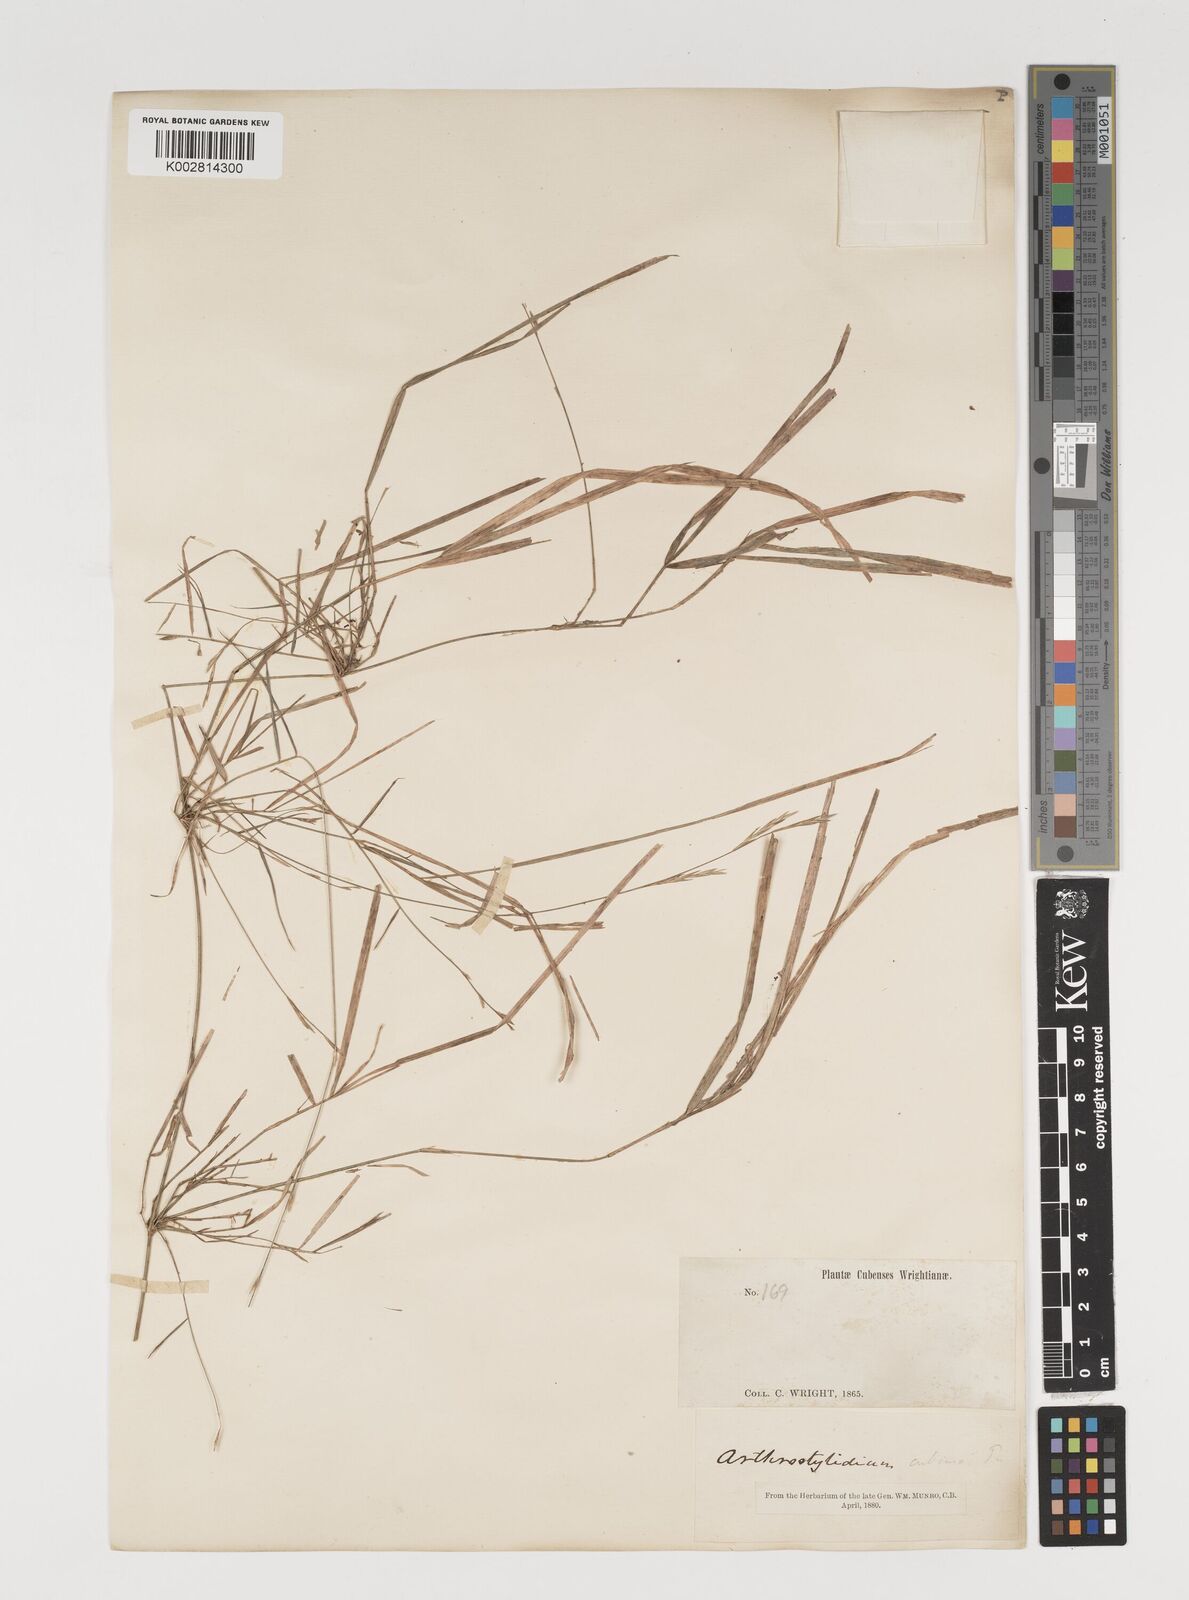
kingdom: Plantae
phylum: Tracheophyta
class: Liliopsida
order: Poales
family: Poaceae
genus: Arthrostylidium
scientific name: Arthrostylidium cubense
